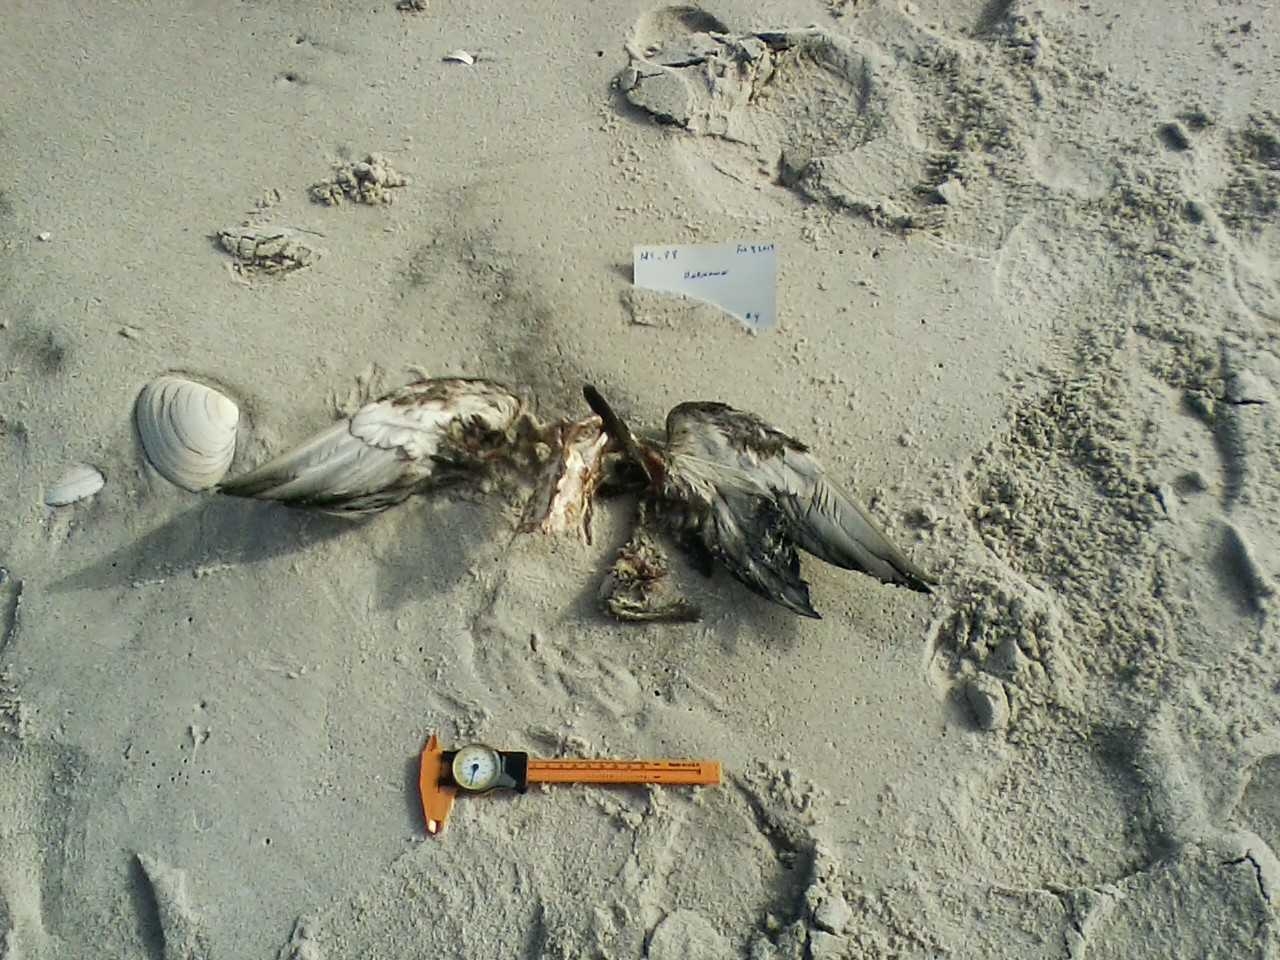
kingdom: Animalia
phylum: Chordata
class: Aves
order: Anseriformes
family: Anatidae
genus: Anas
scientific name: Anas rubripes
